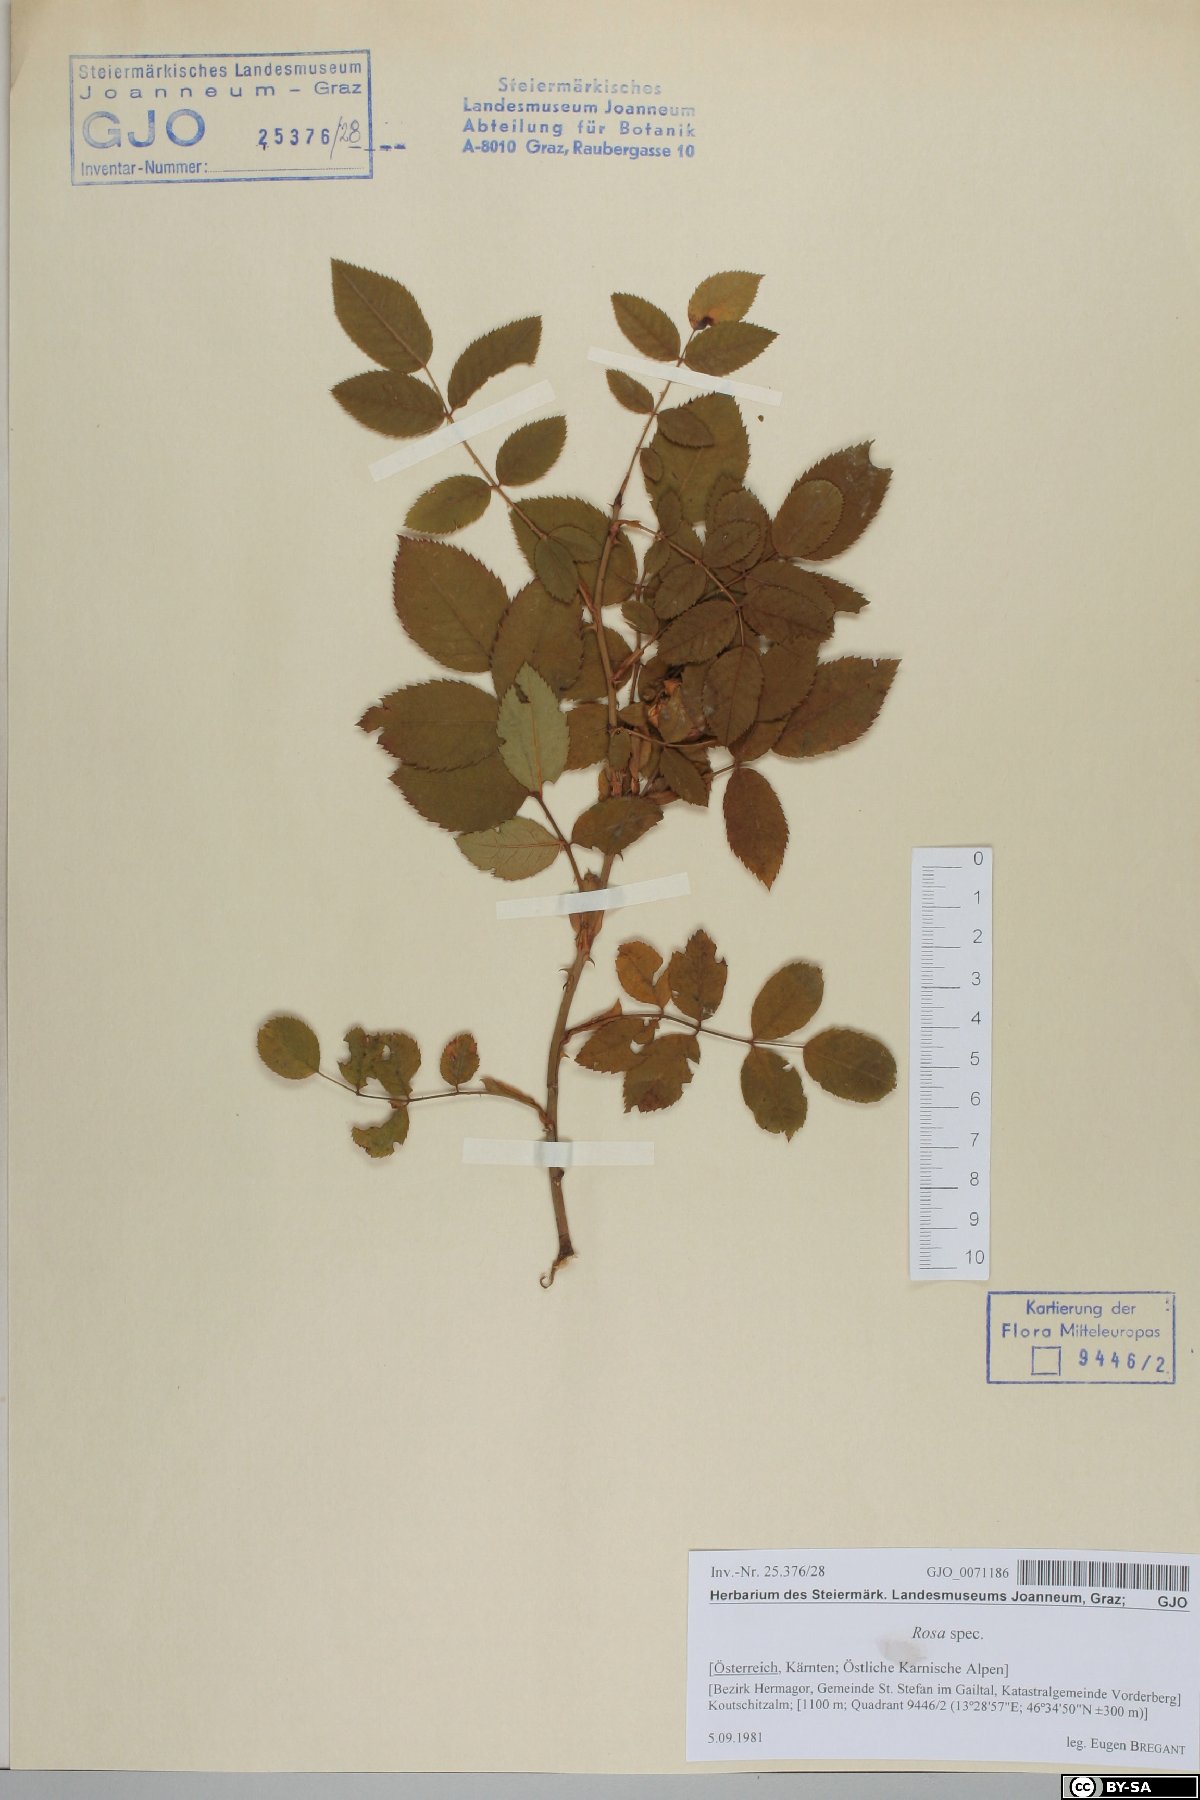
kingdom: Plantae
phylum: Tracheophyta
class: Magnoliopsida
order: Rosales
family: Rosaceae
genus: Rosa
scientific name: Rosa
